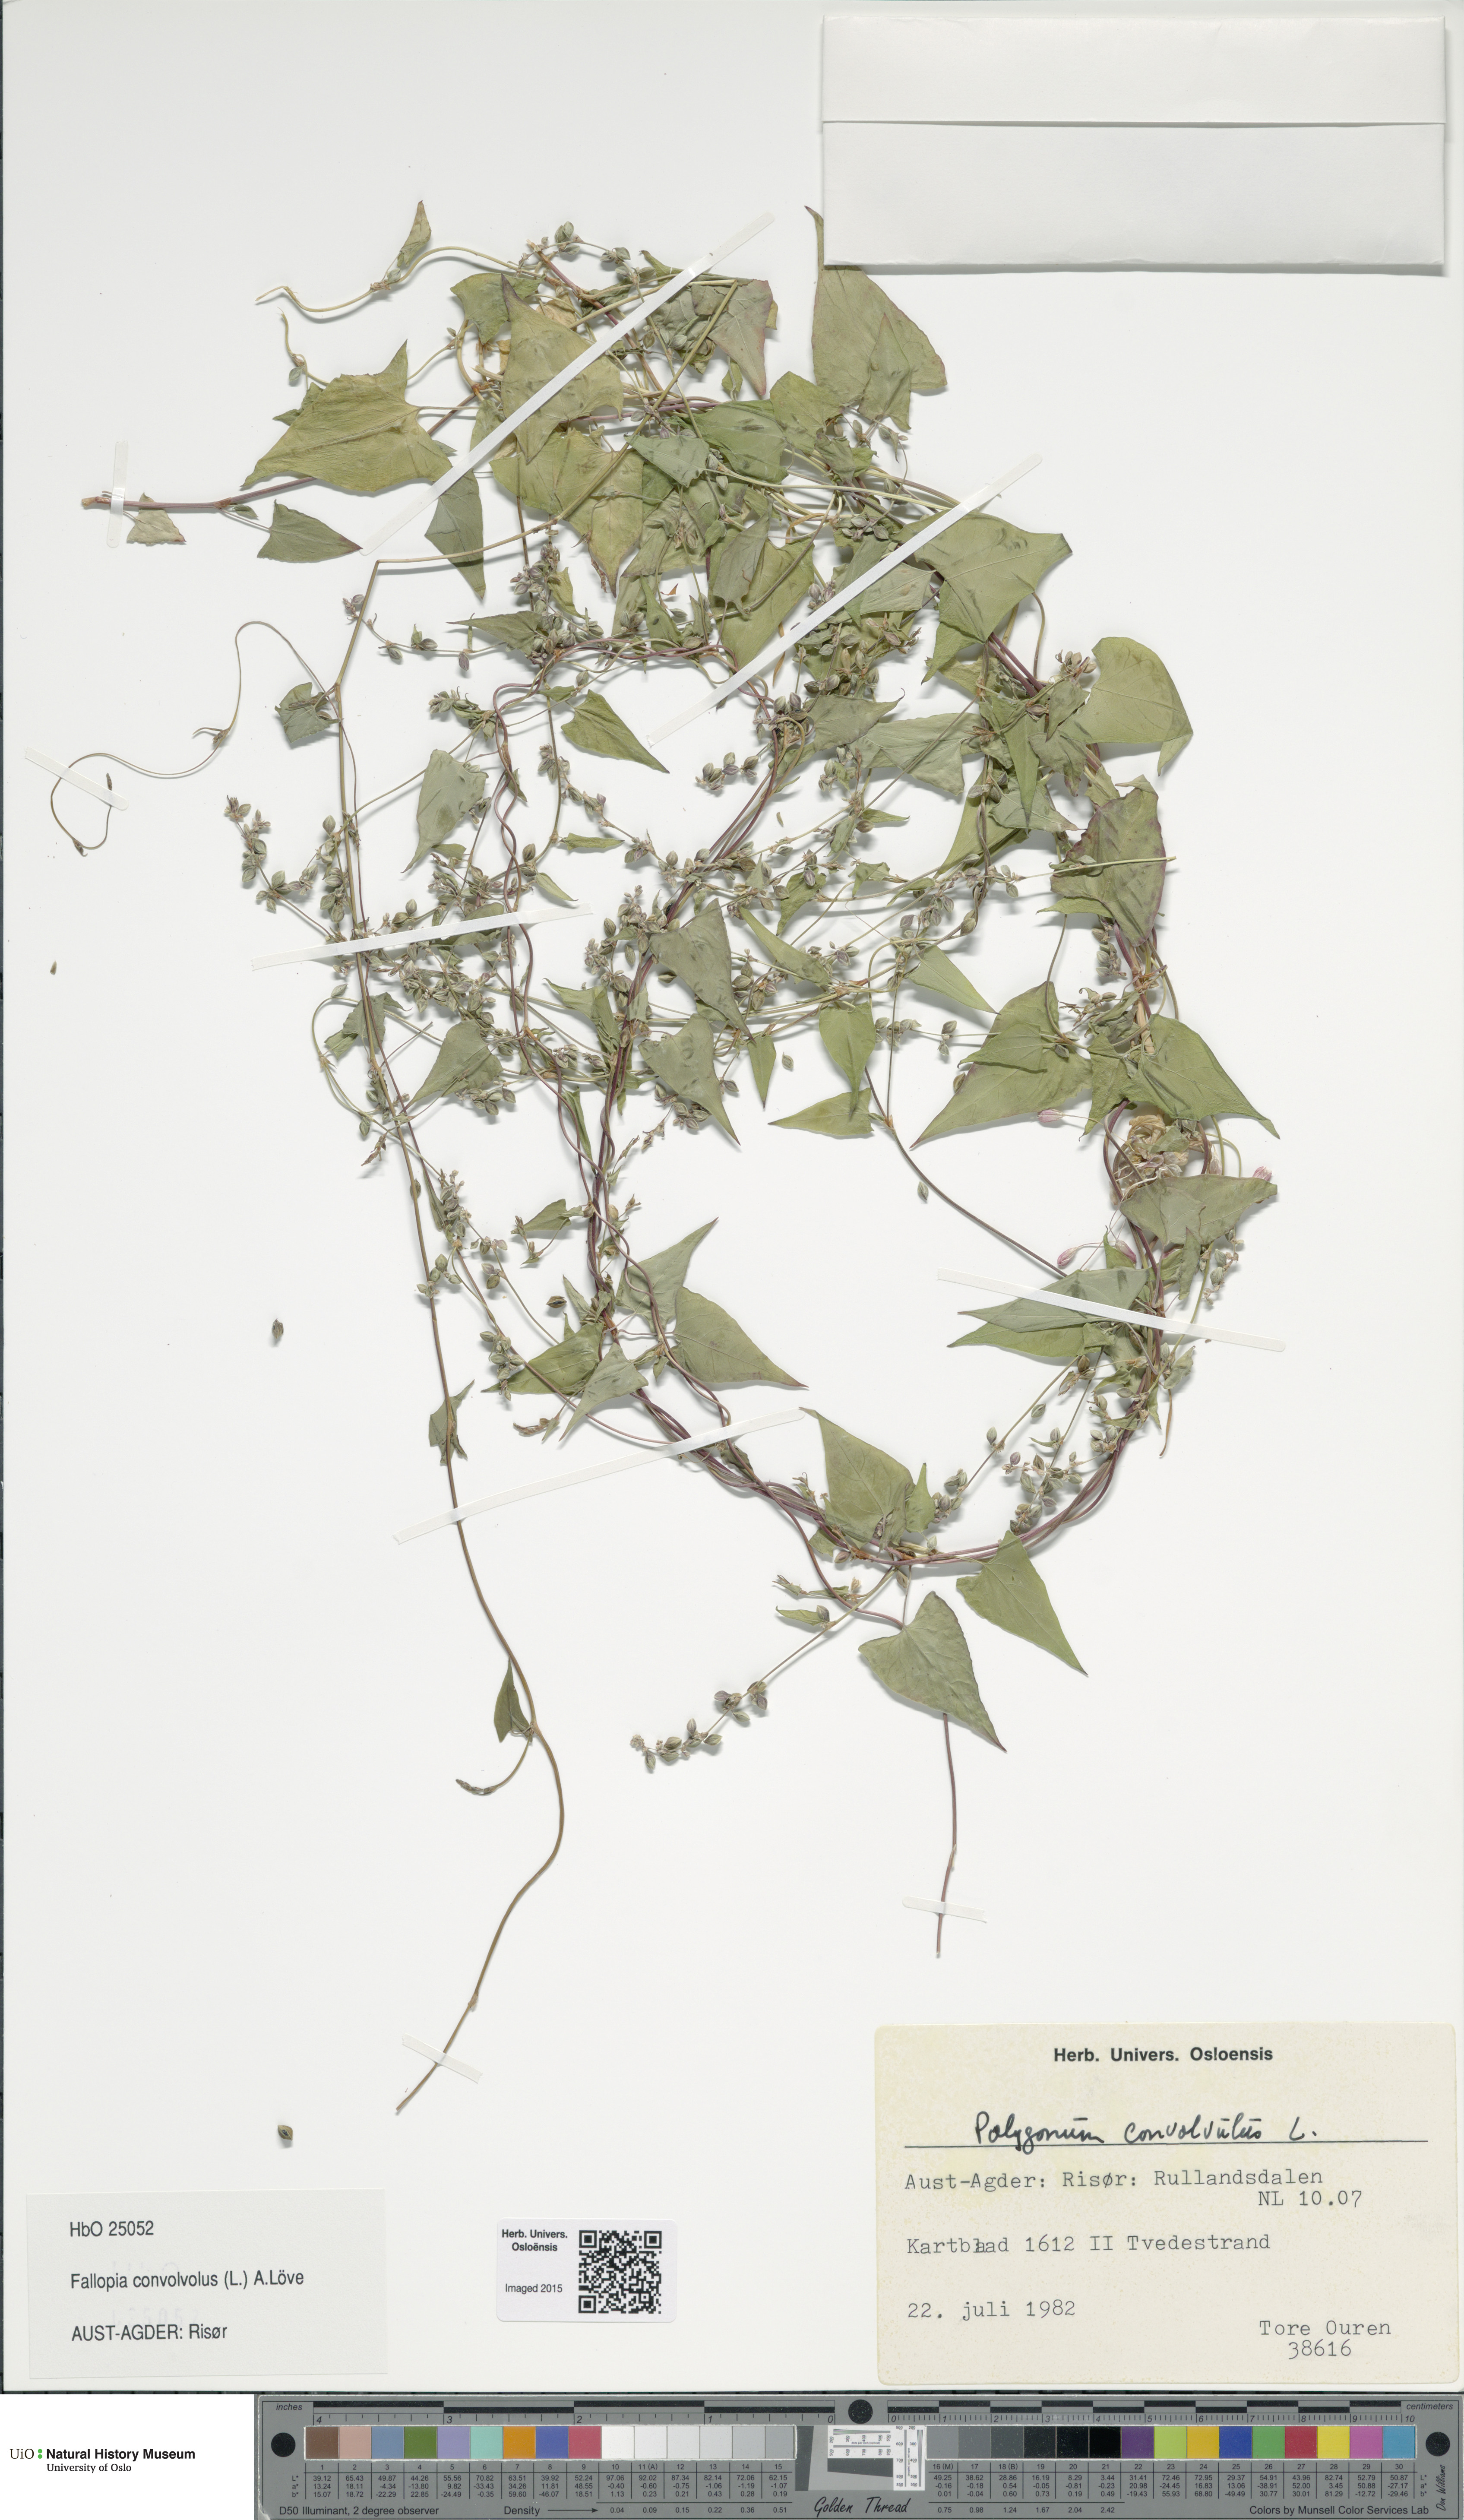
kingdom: Plantae
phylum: Tracheophyta
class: Magnoliopsida
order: Caryophyllales
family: Polygonaceae
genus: Fallopia
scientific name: Fallopia convolvulus
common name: Black bindweed
